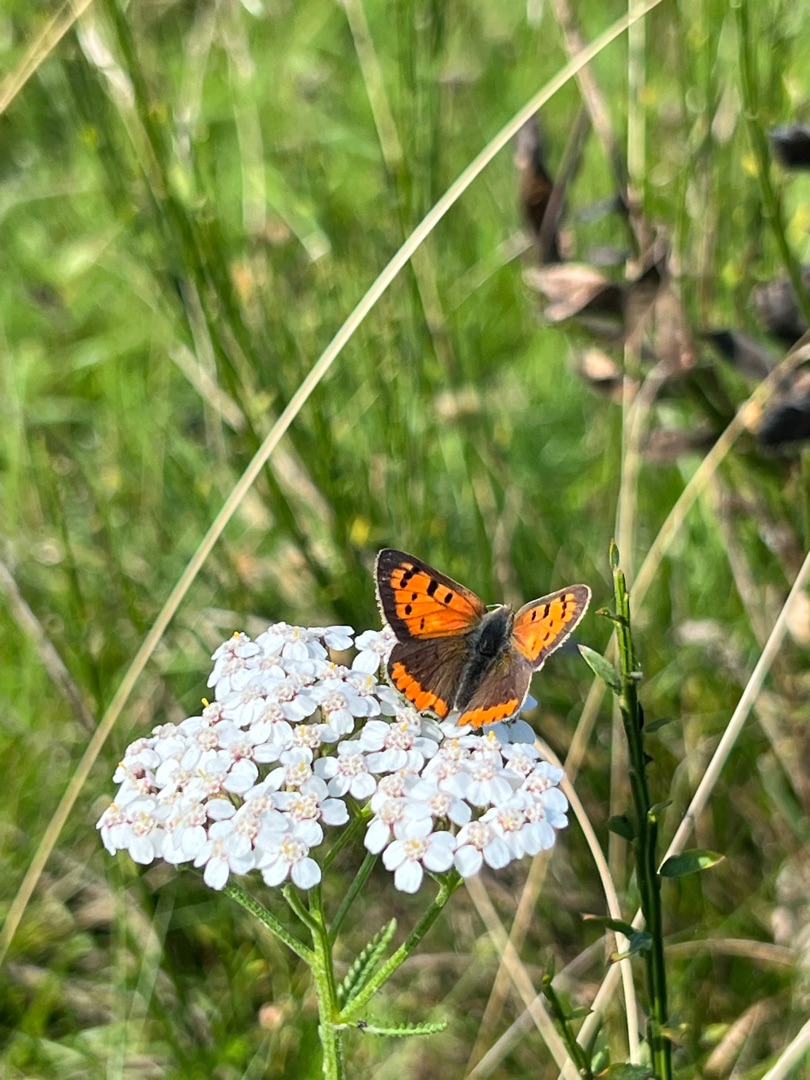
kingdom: Animalia
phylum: Arthropoda
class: Insecta
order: Lepidoptera
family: Lycaenidae
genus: Lycaena
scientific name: Lycaena phlaeas
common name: Lille ildfugl
